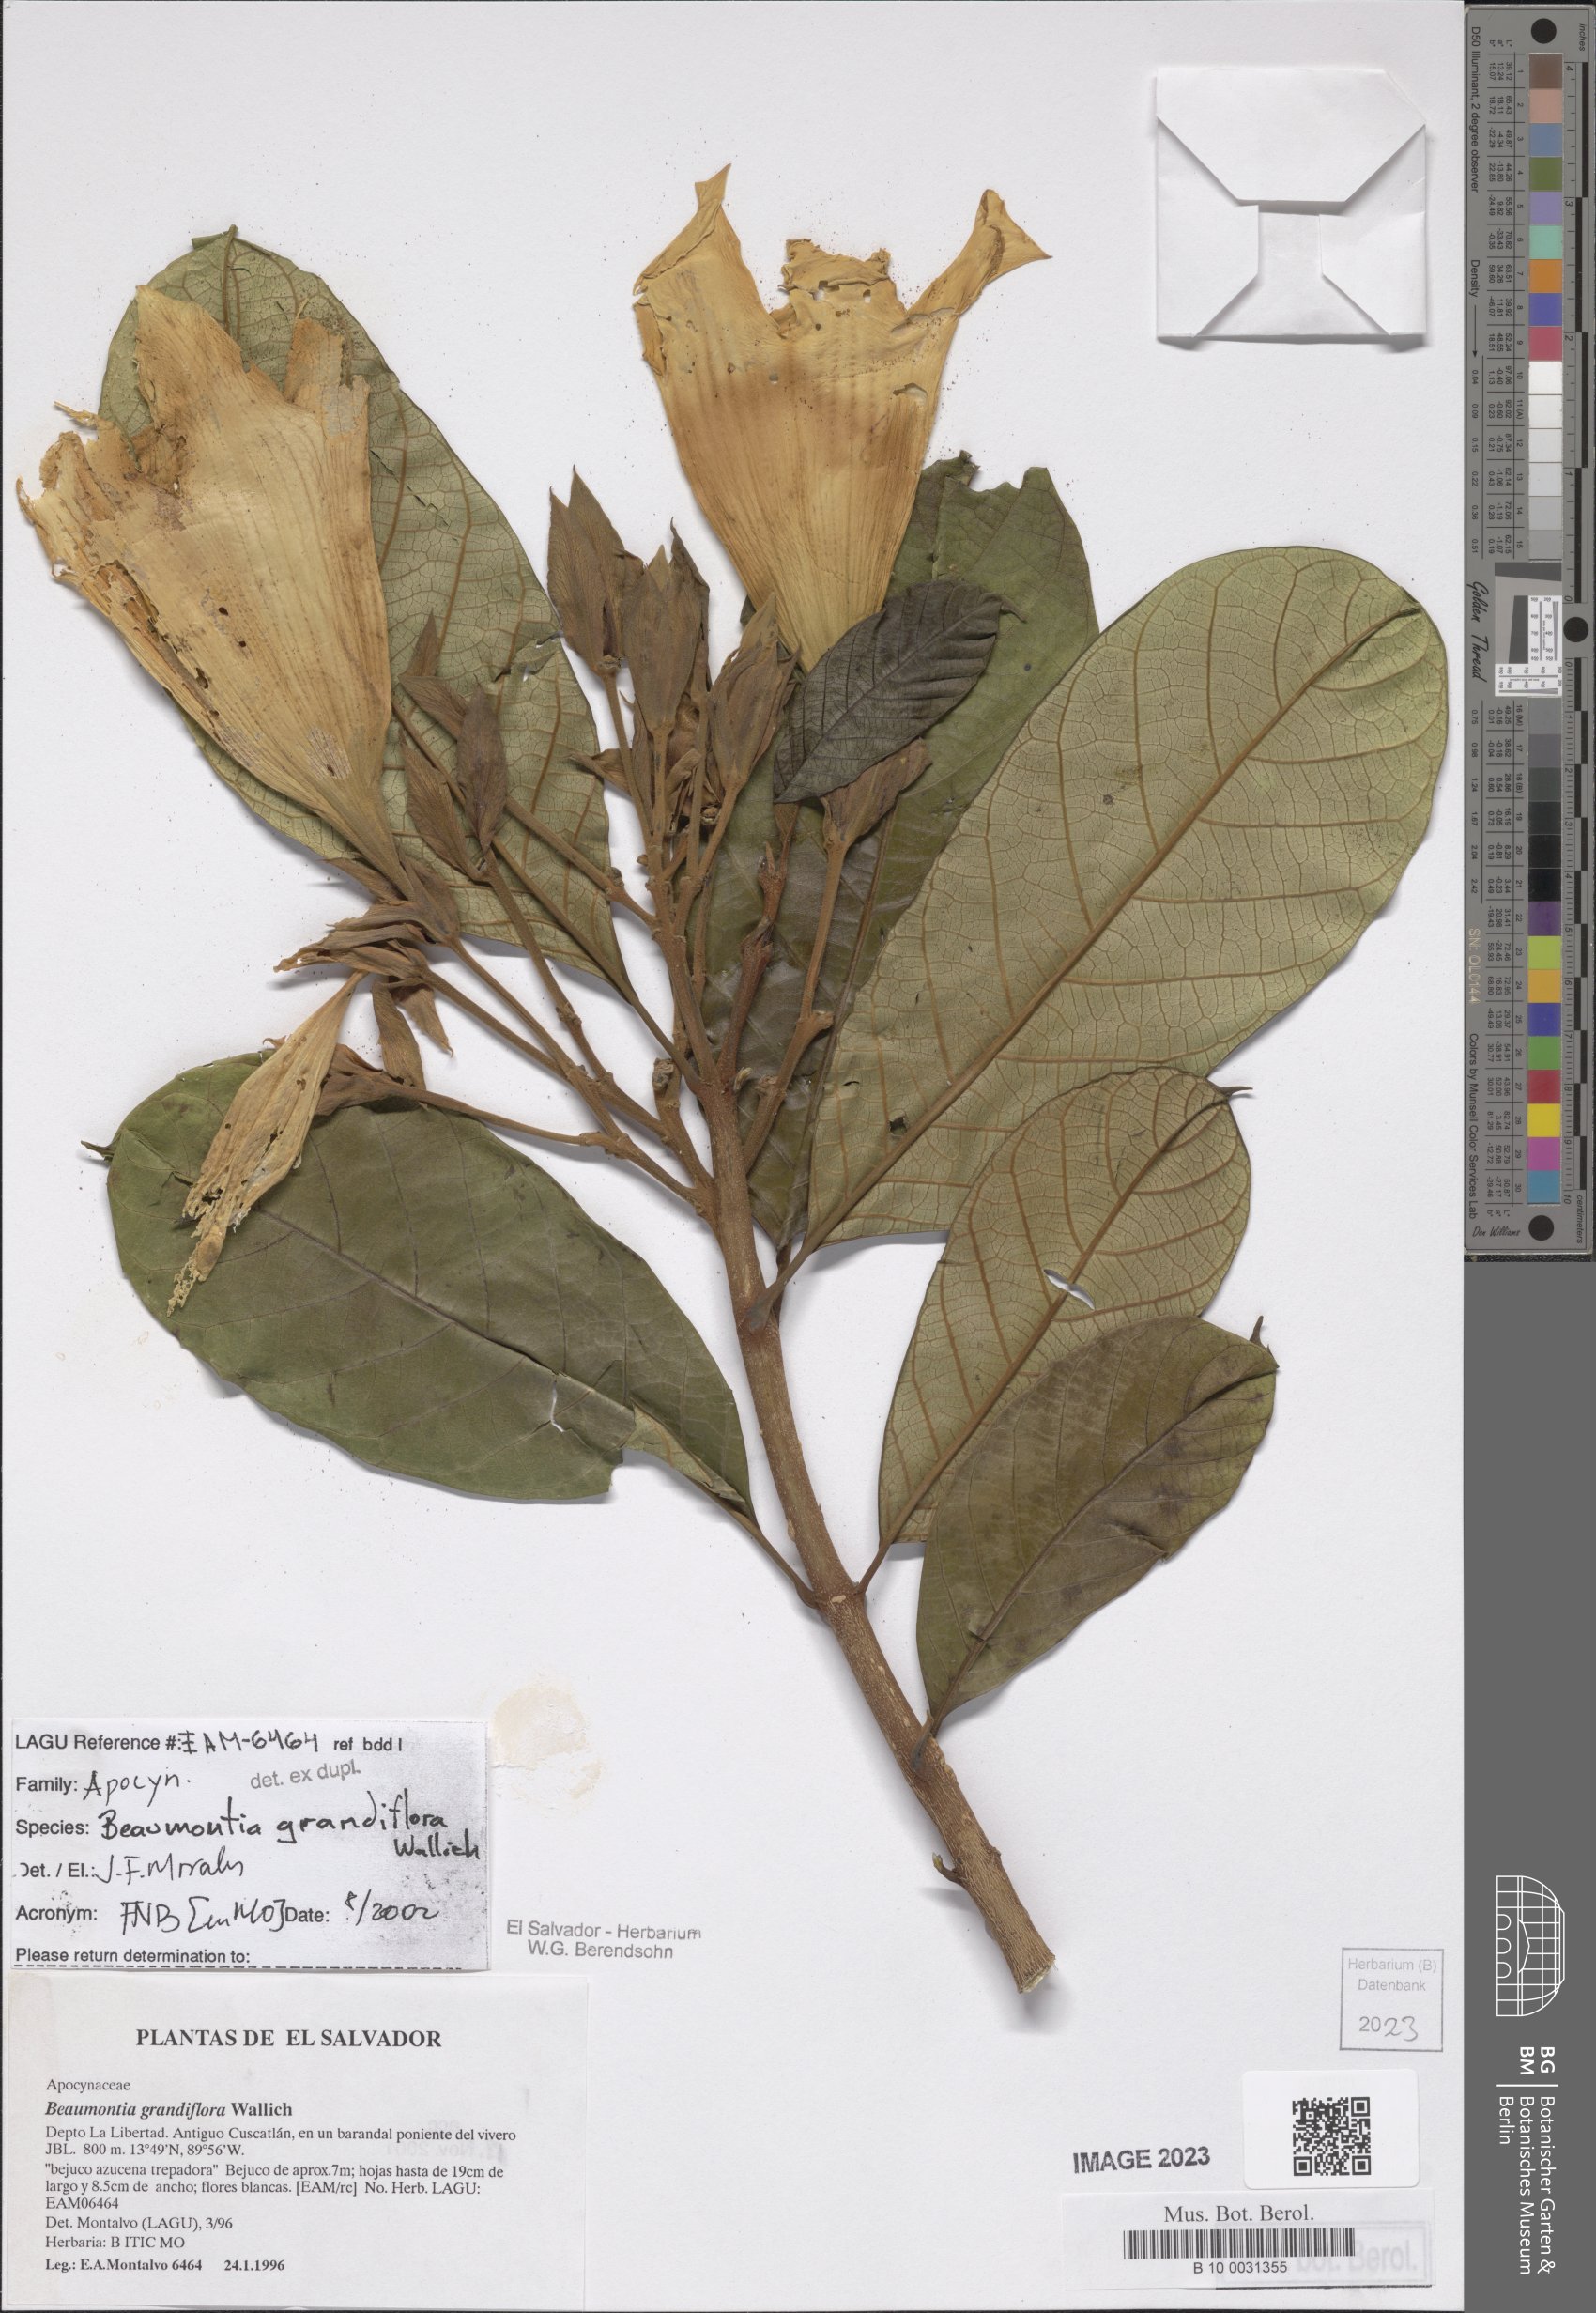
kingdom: Plantae
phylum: Tracheophyta
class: Magnoliopsida
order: Gentianales
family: Apocynaceae
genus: Beaumontia
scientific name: Beaumontia grandiflora
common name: Easter-lily-vine
